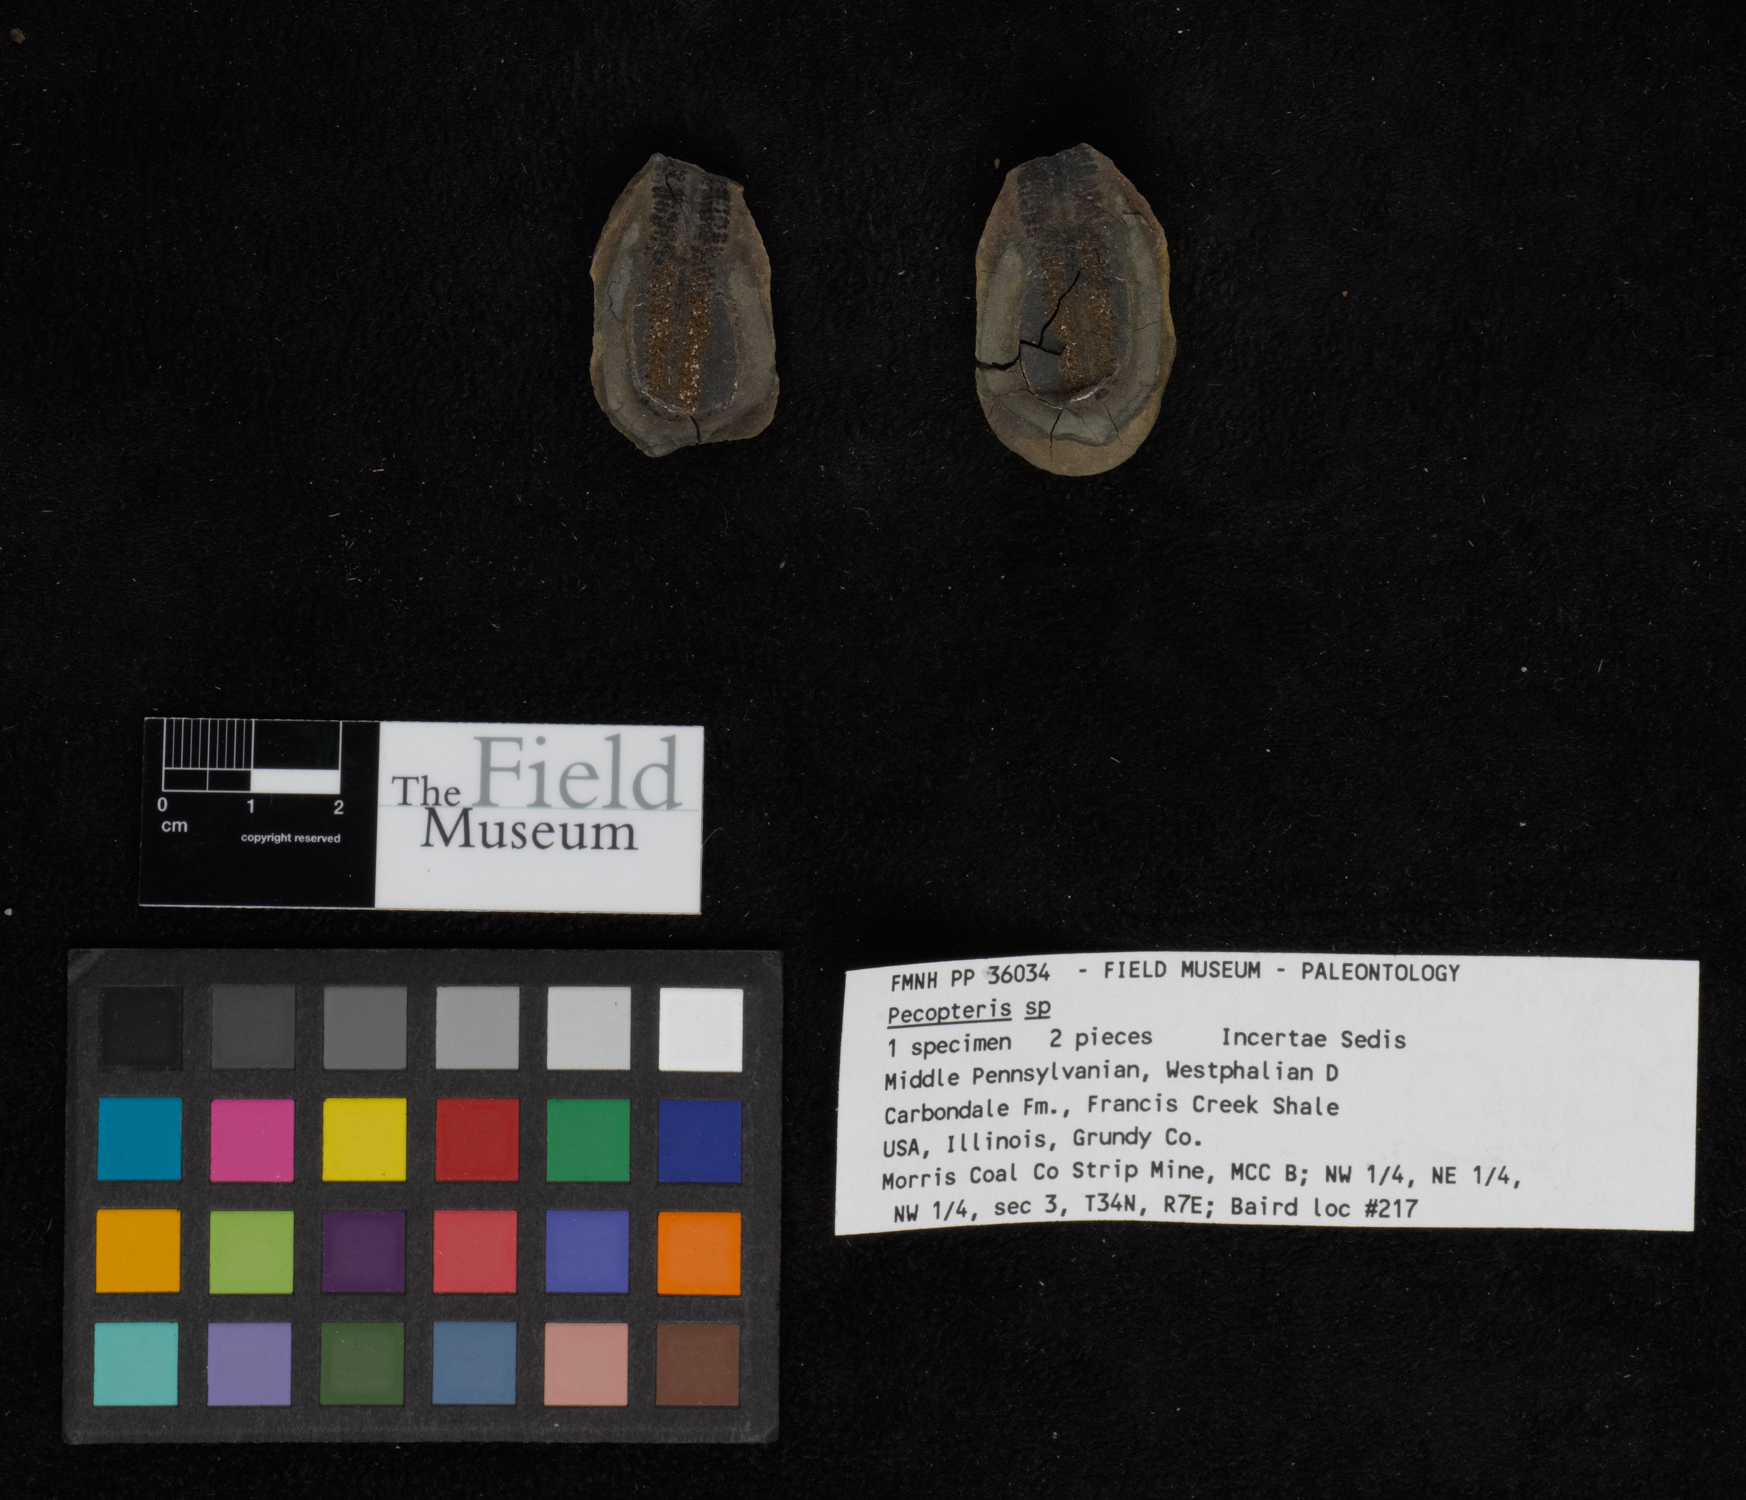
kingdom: Plantae
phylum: Tracheophyta
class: Polypodiopsida
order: Marattiales
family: Asterothecaceae
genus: Pecopteris
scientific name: Pecopteris
